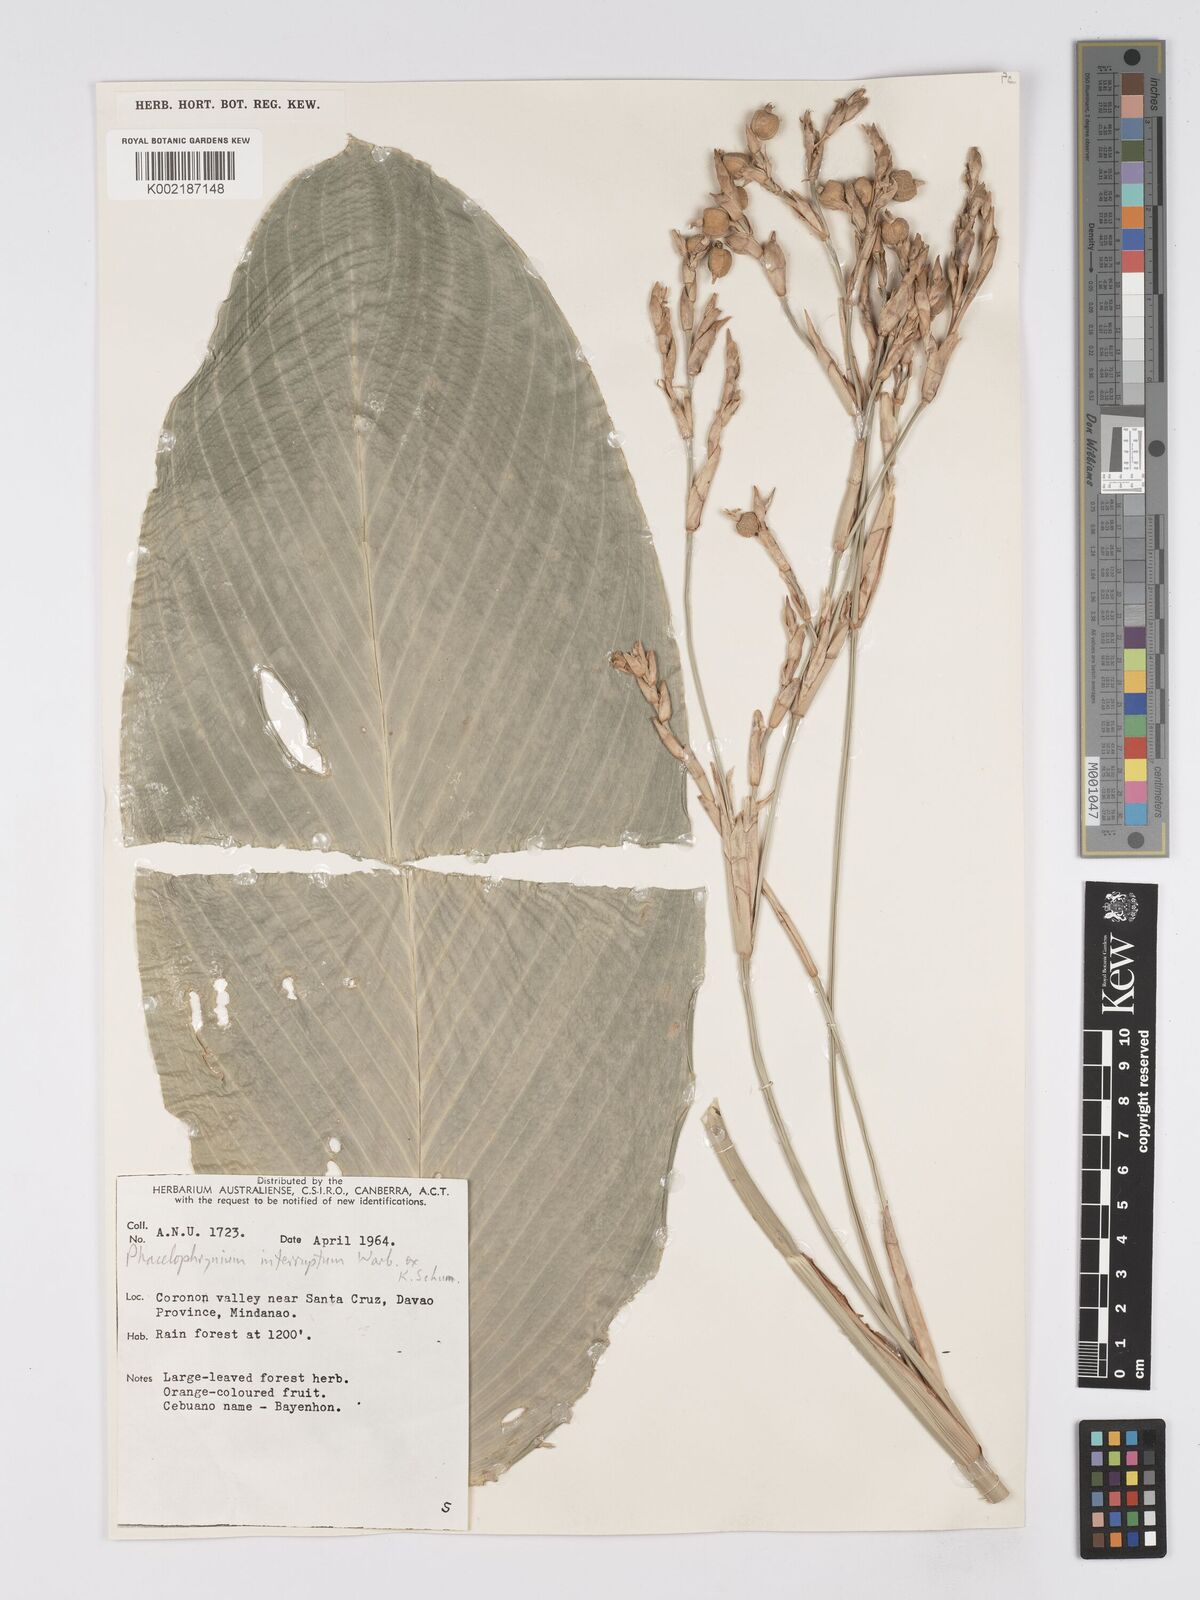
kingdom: Plantae
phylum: Tracheophyta
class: Liliopsida
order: Zingiberales
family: Marantaceae
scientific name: Marantaceae
